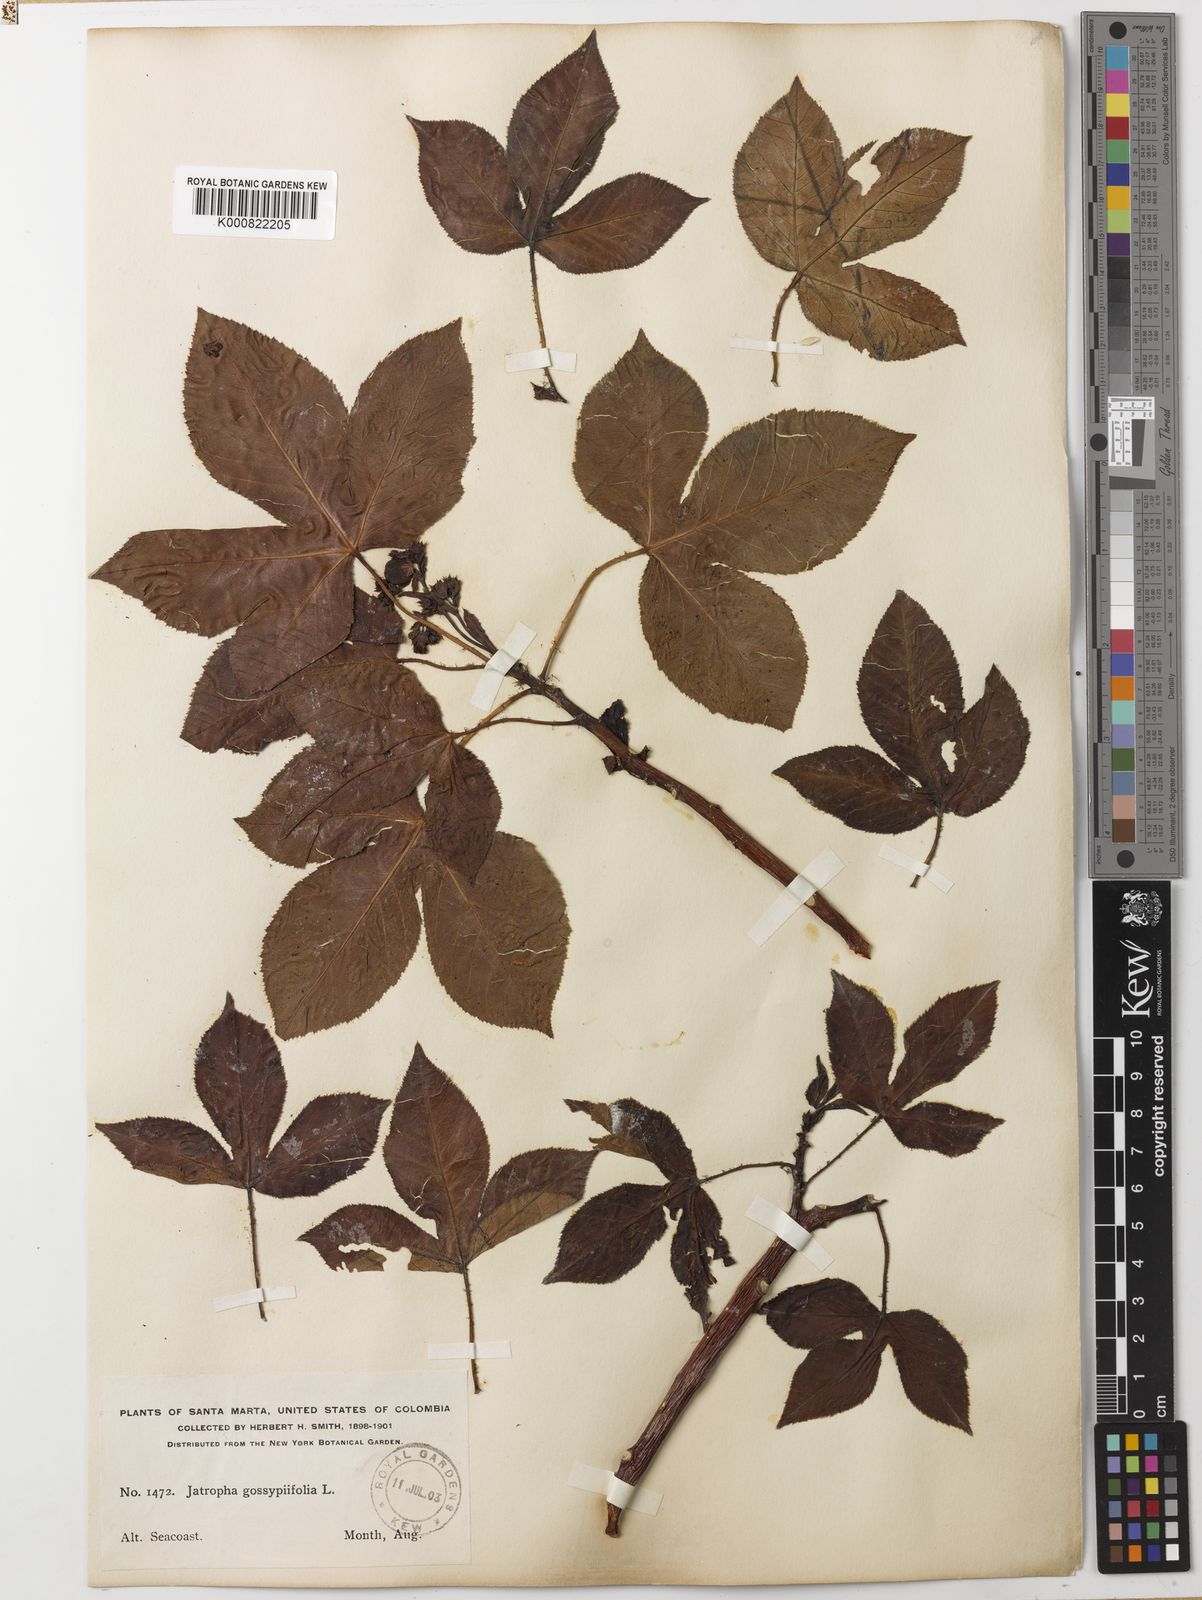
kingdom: Plantae
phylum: Tracheophyta
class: Magnoliopsida
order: Malpighiales
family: Euphorbiaceae
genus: Jatropha
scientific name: Jatropha gossypiifolia
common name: Bellyache bush
